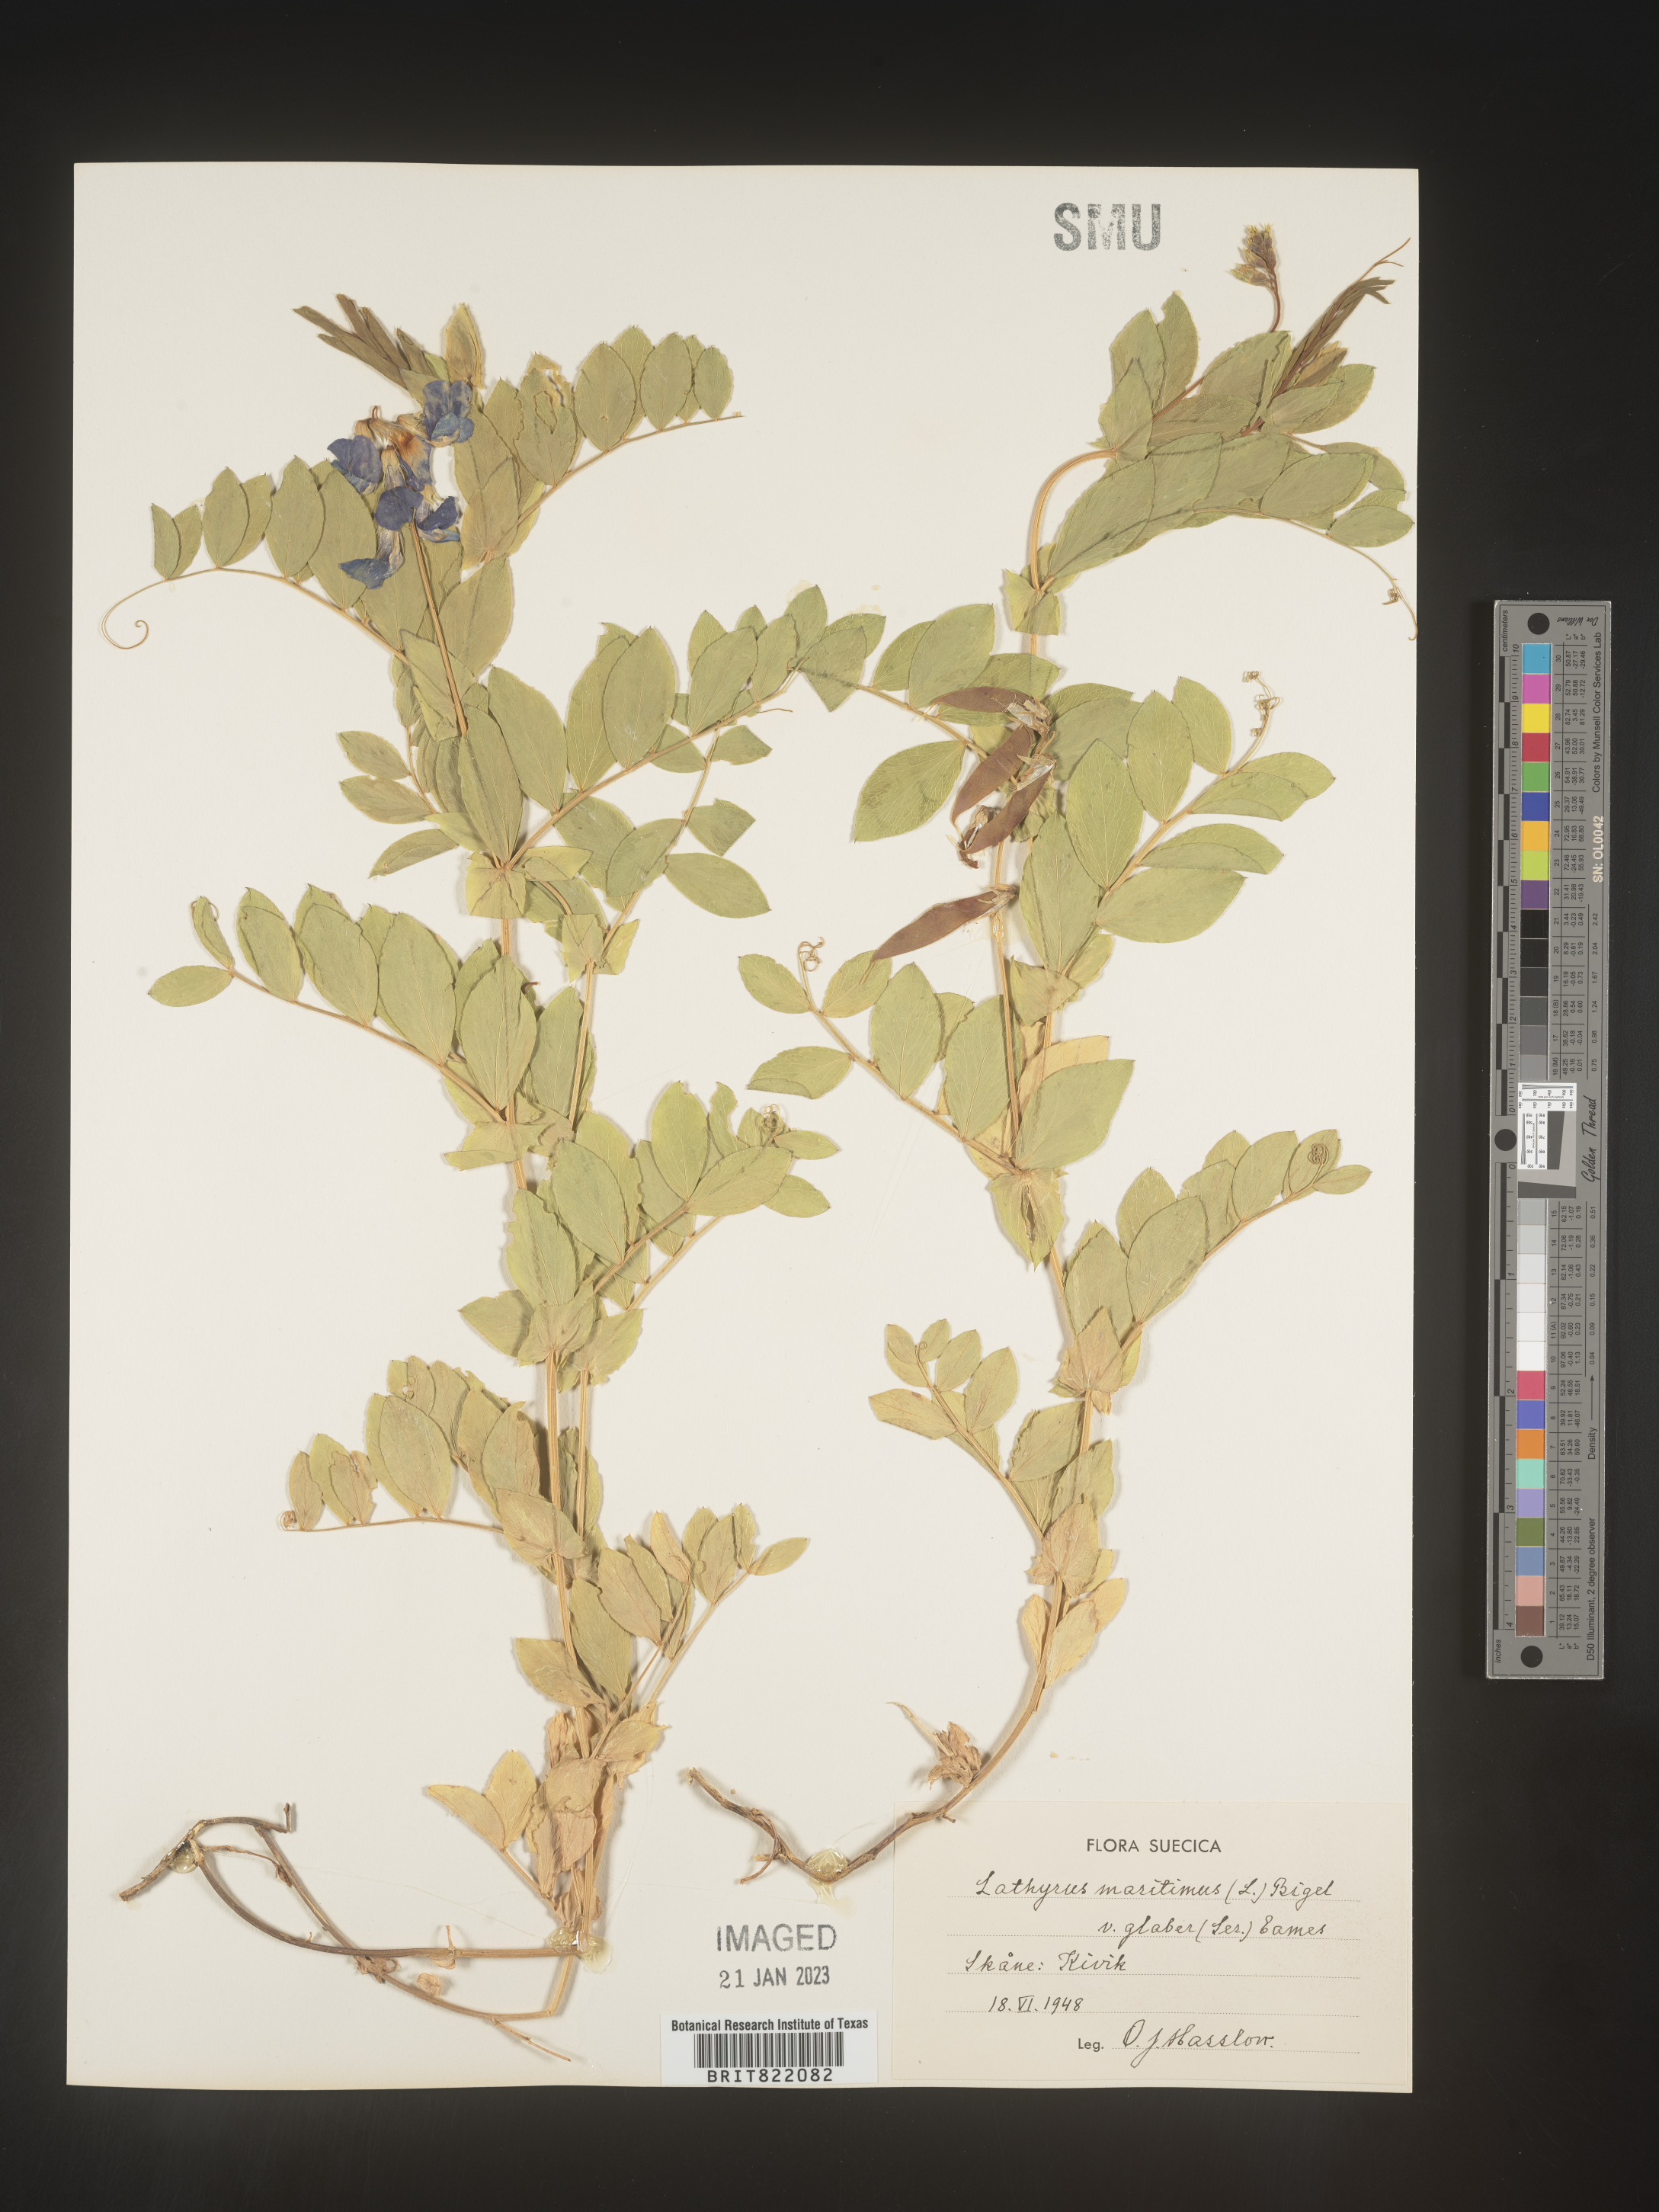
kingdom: Plantae
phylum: Tracheophyta
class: Magnoliopsida
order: Fabales
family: Fabaceae
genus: Lathyrus
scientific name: Lathyrus
